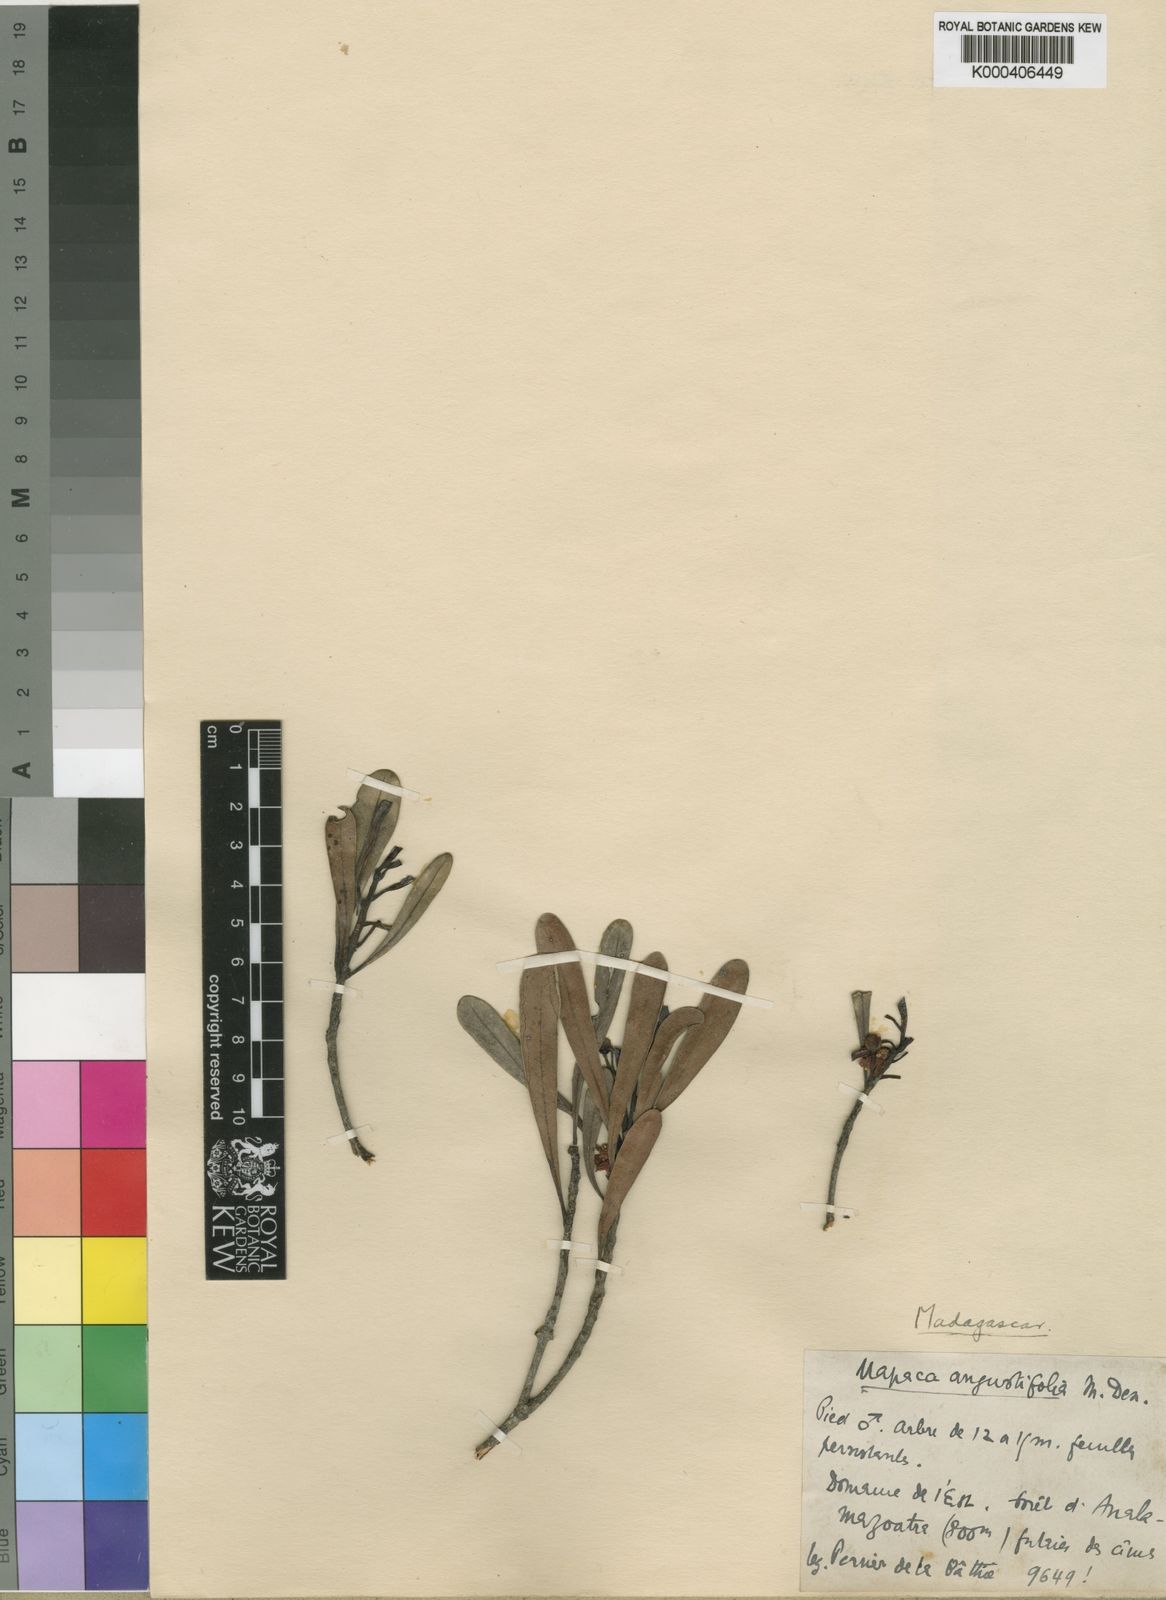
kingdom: Plantae
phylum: Tracheophyta
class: Magnoliopsida
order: Malpighiales
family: Phyllanthaceae
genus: Uapaca
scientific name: Uapaca densifolia
